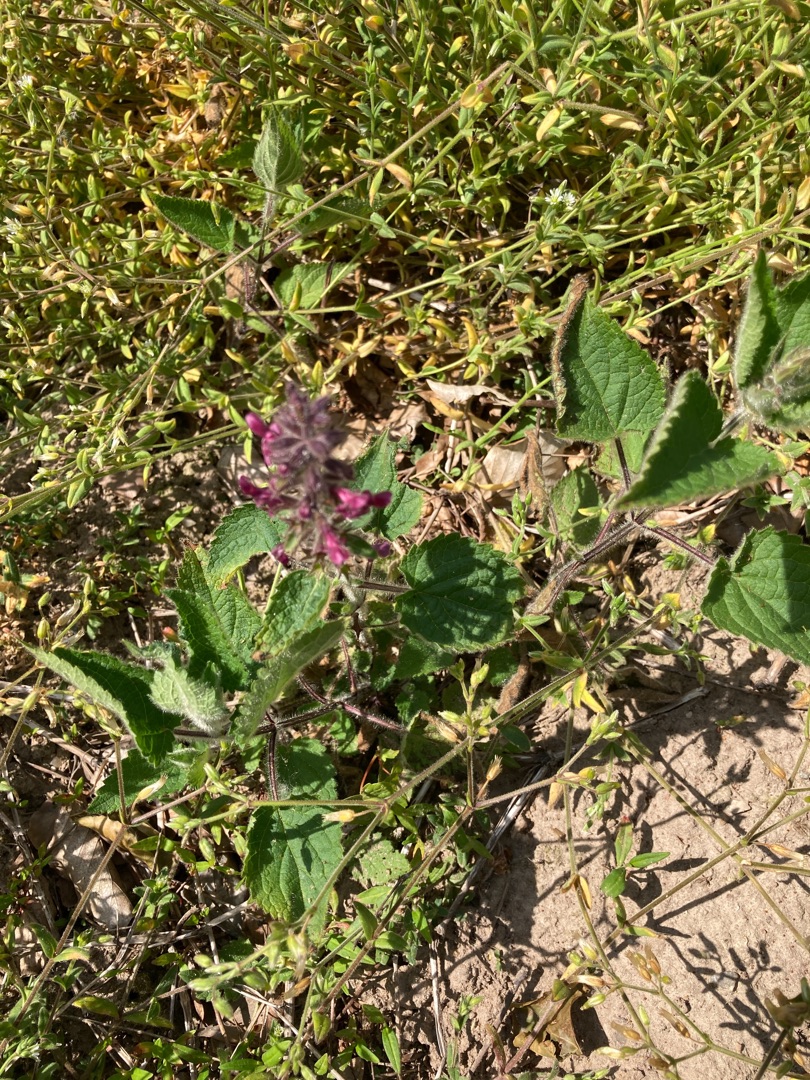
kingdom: Plantae
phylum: Tracheophyta
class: Magnoliopsida
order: Lamiales
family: Lamiaceae
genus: Stachys
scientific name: Stachys sylvatica
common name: Skov-galtetand
